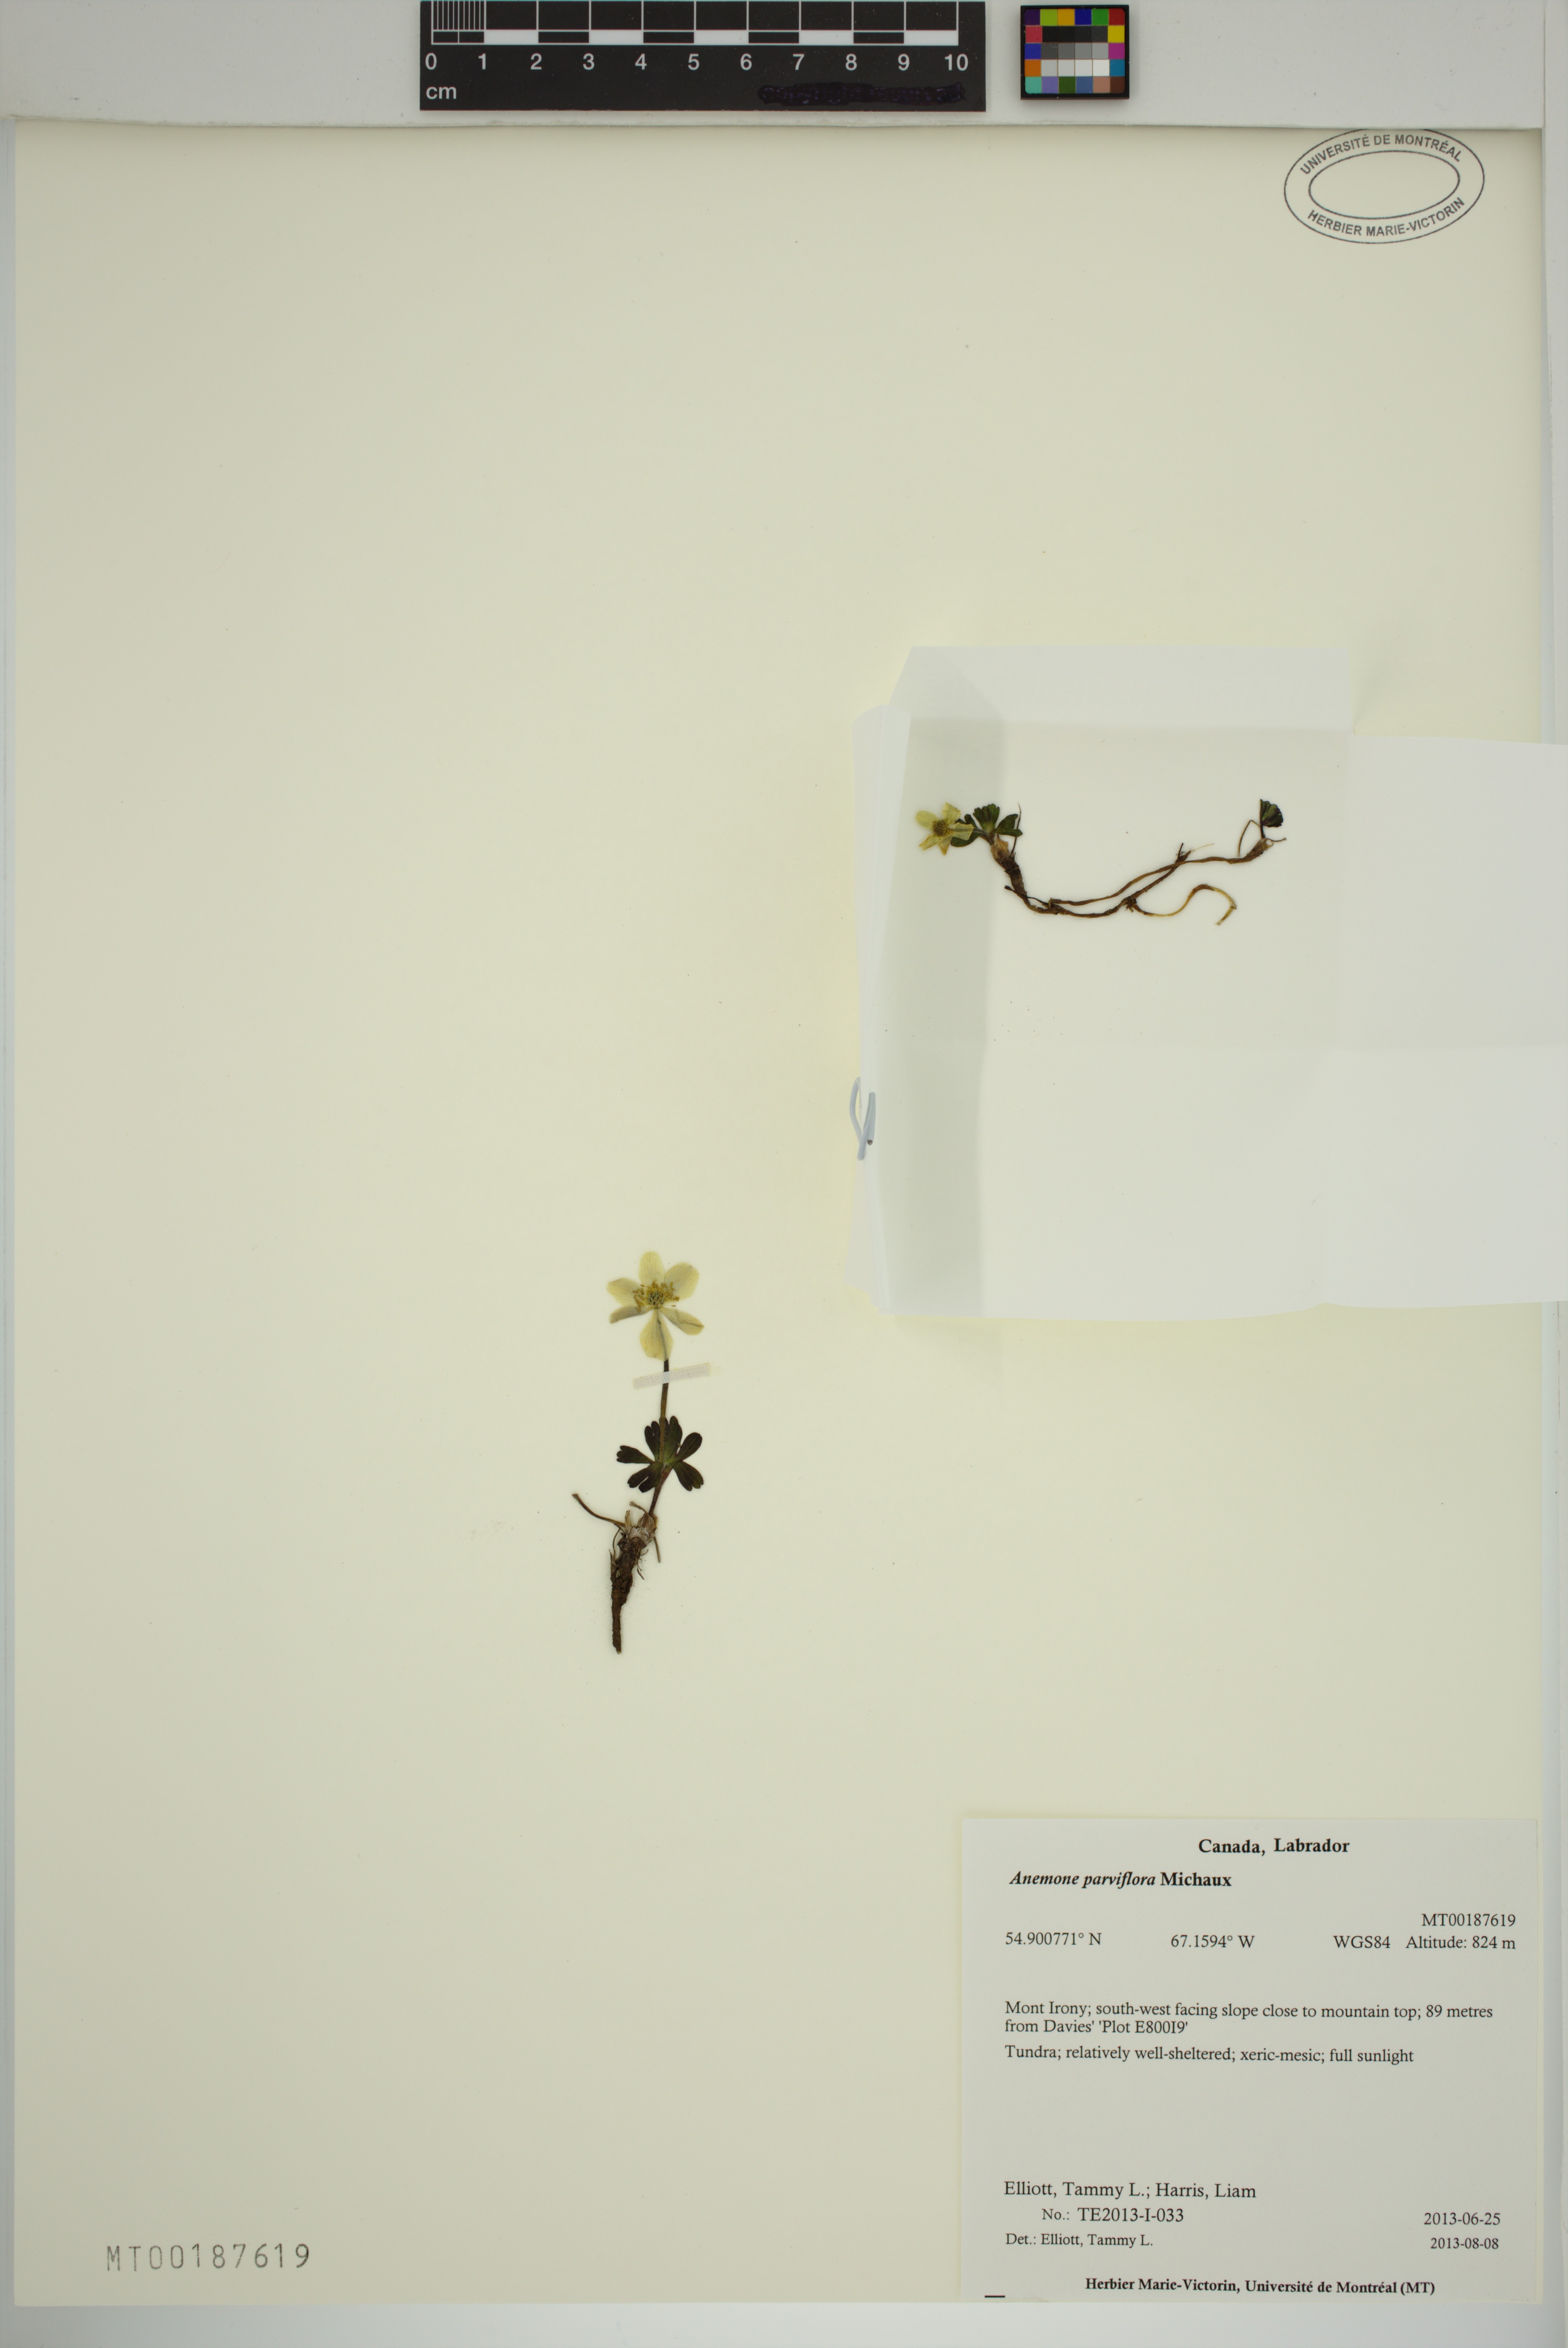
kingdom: Plantae
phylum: Tracheophyta
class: Magnoliopsida
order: Ranunculales
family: Ranunculaceae
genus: Anemone
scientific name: Anemone parviflora
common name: Northern anemone
